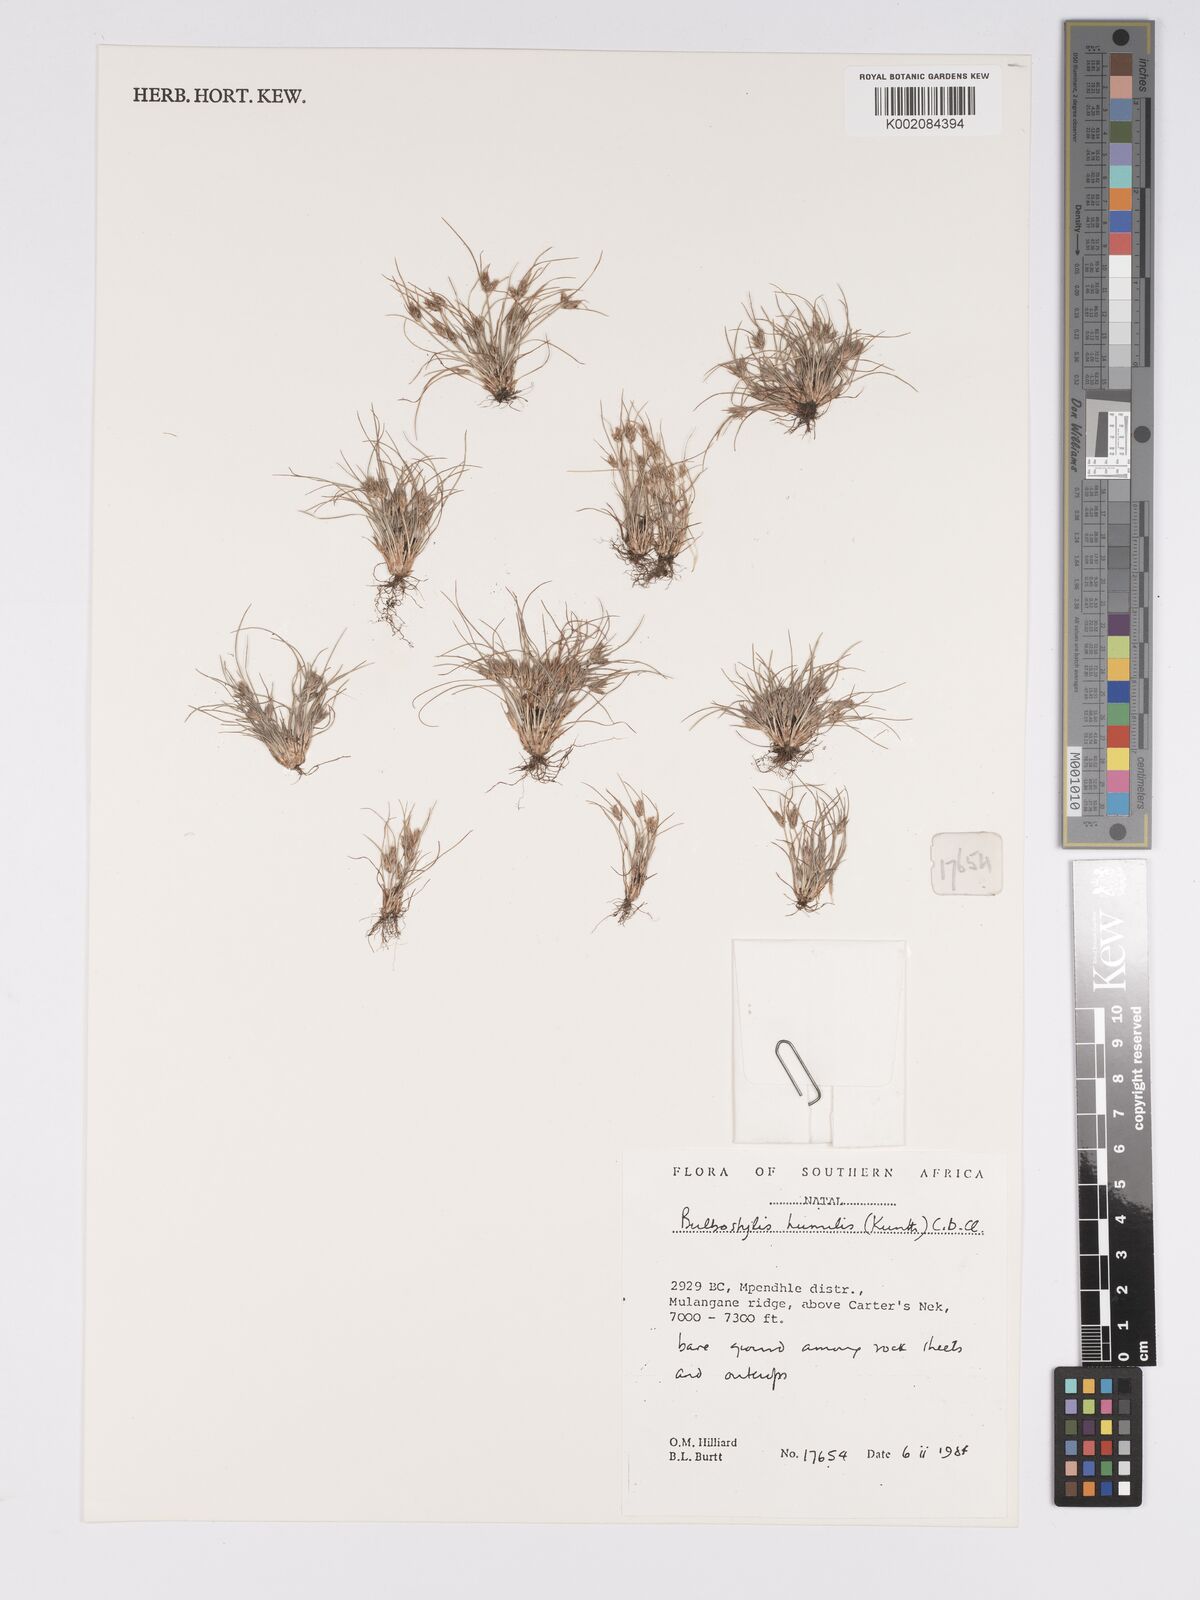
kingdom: Plantae
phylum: Tracheophyta
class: Liliopsida
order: Poales
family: Cyperaceae
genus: Bulbostylis
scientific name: Bulbostylis humilis
